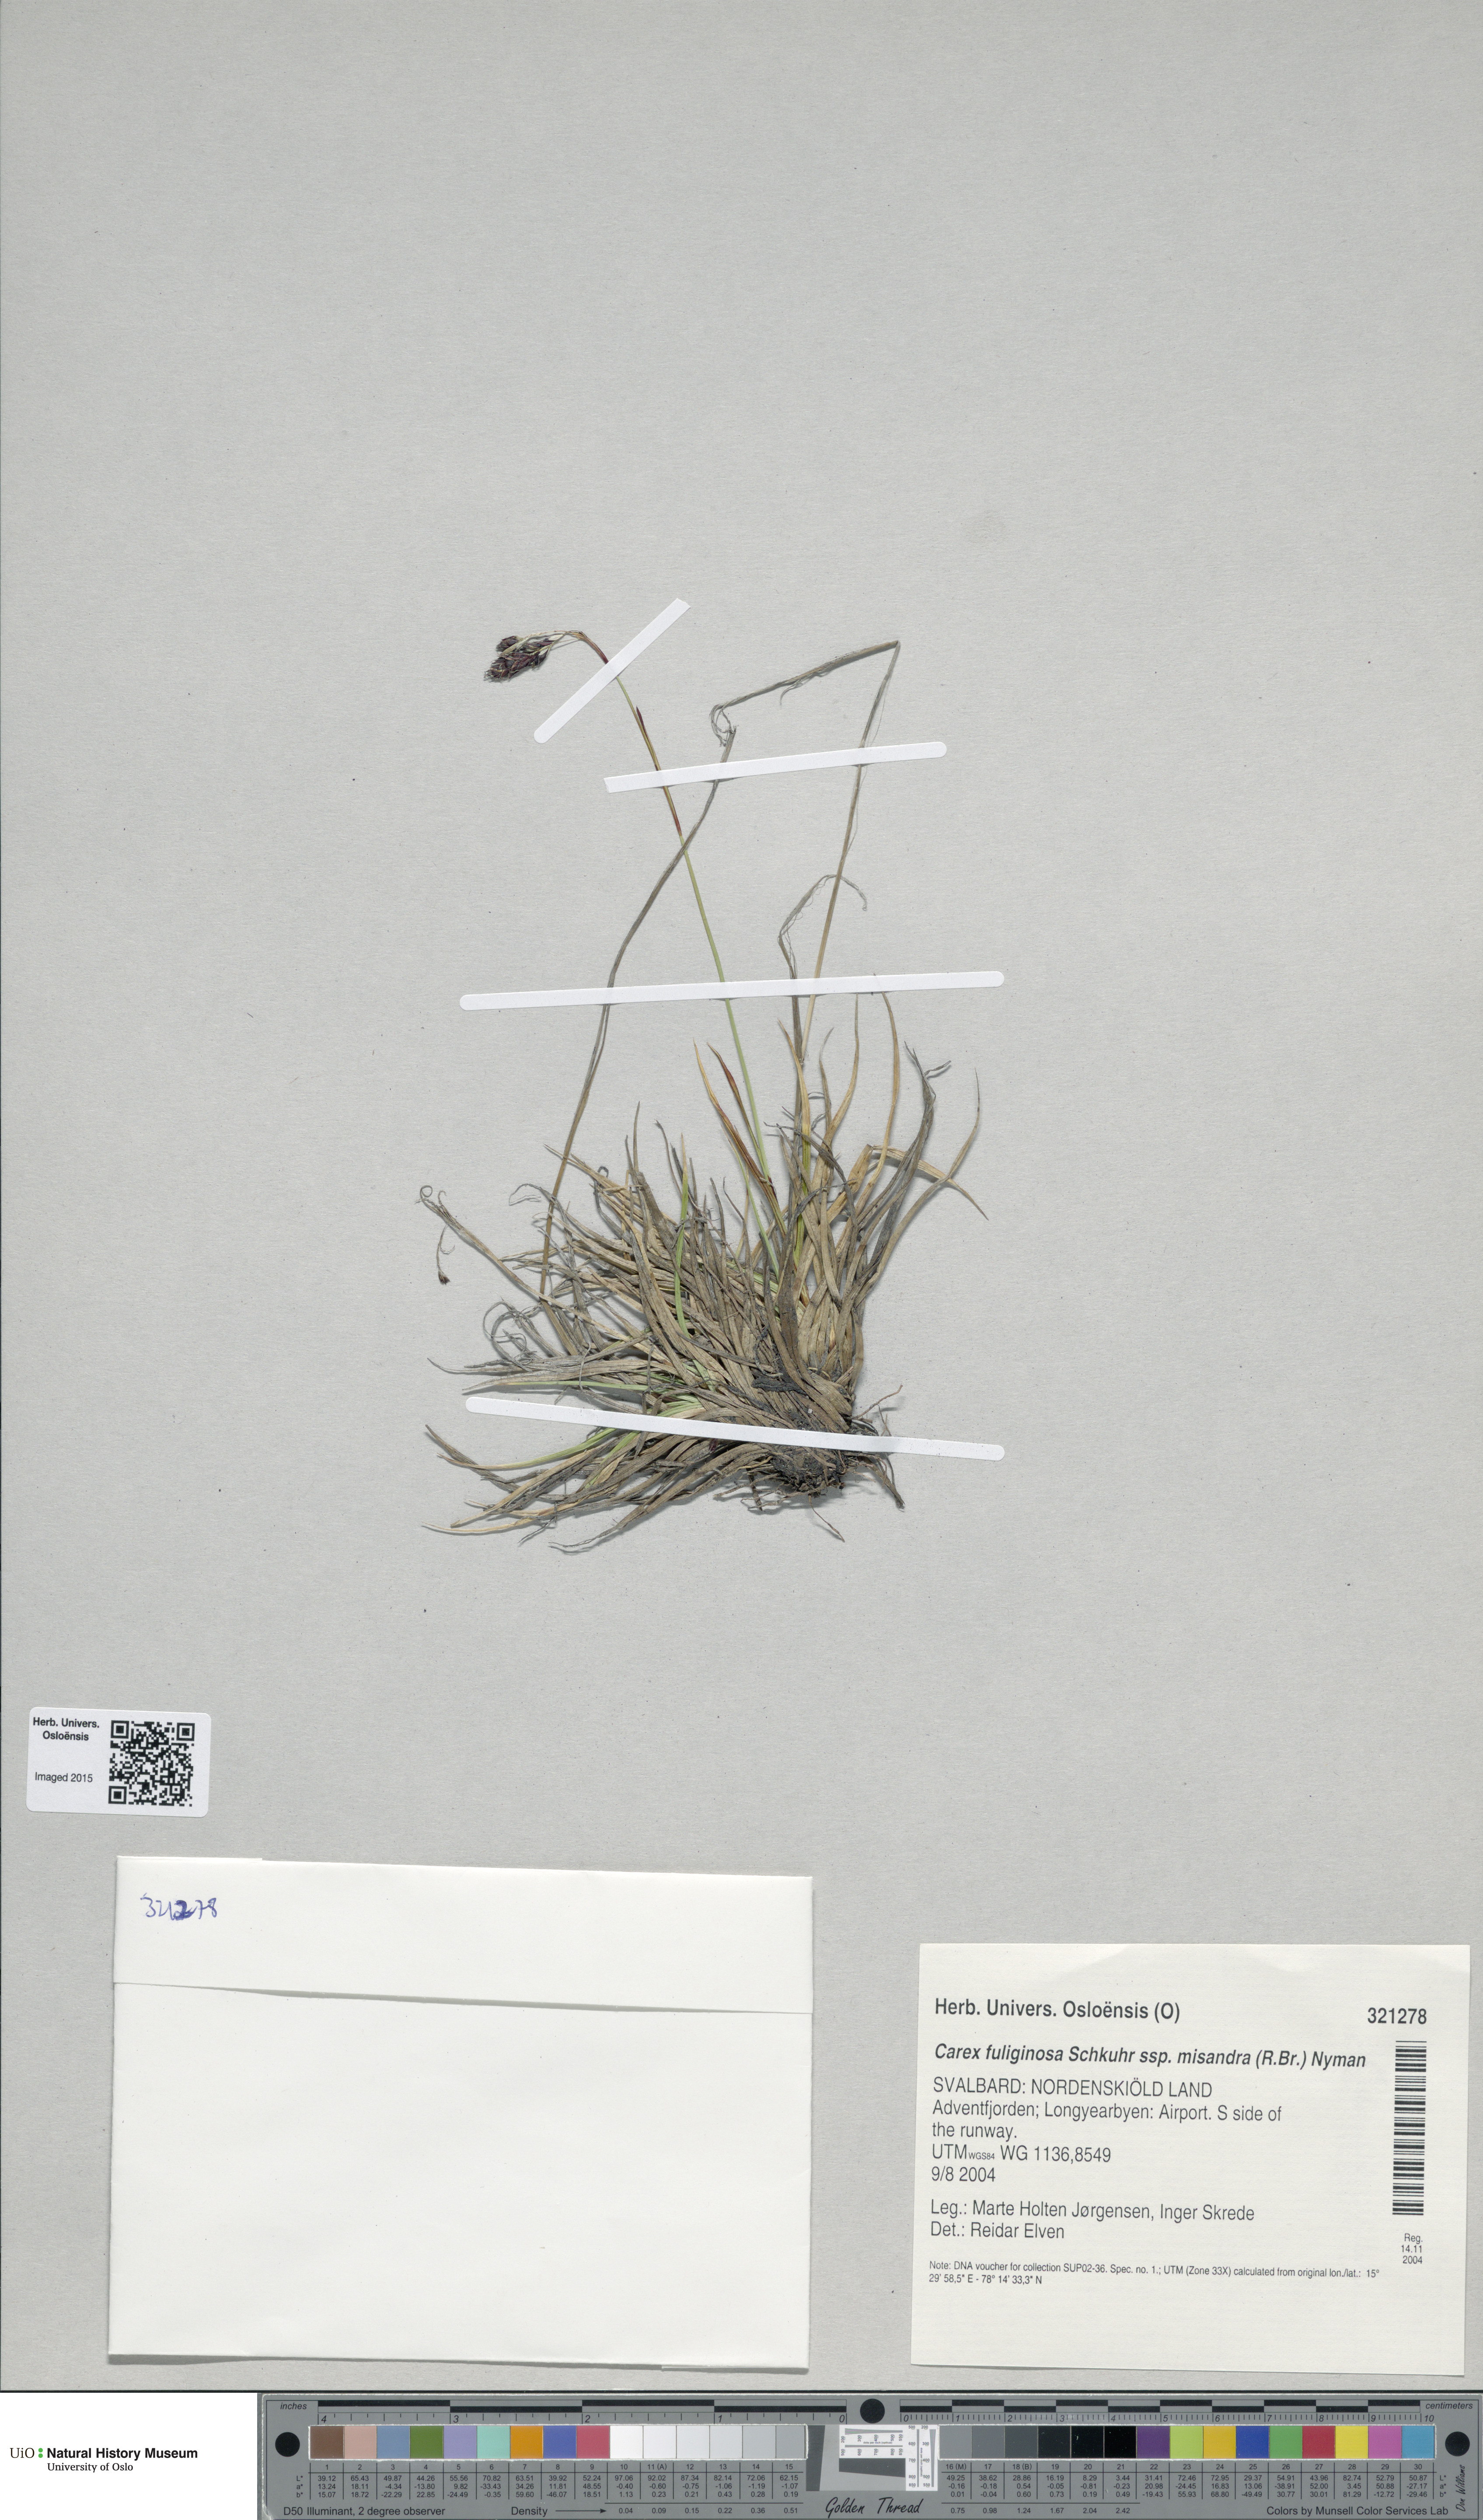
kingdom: Plantae
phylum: Tracheophyta
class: Liliopsida
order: Poales
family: Cyperaceae
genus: Carex
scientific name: Carex fuliginosa
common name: Few-flowered sedge
